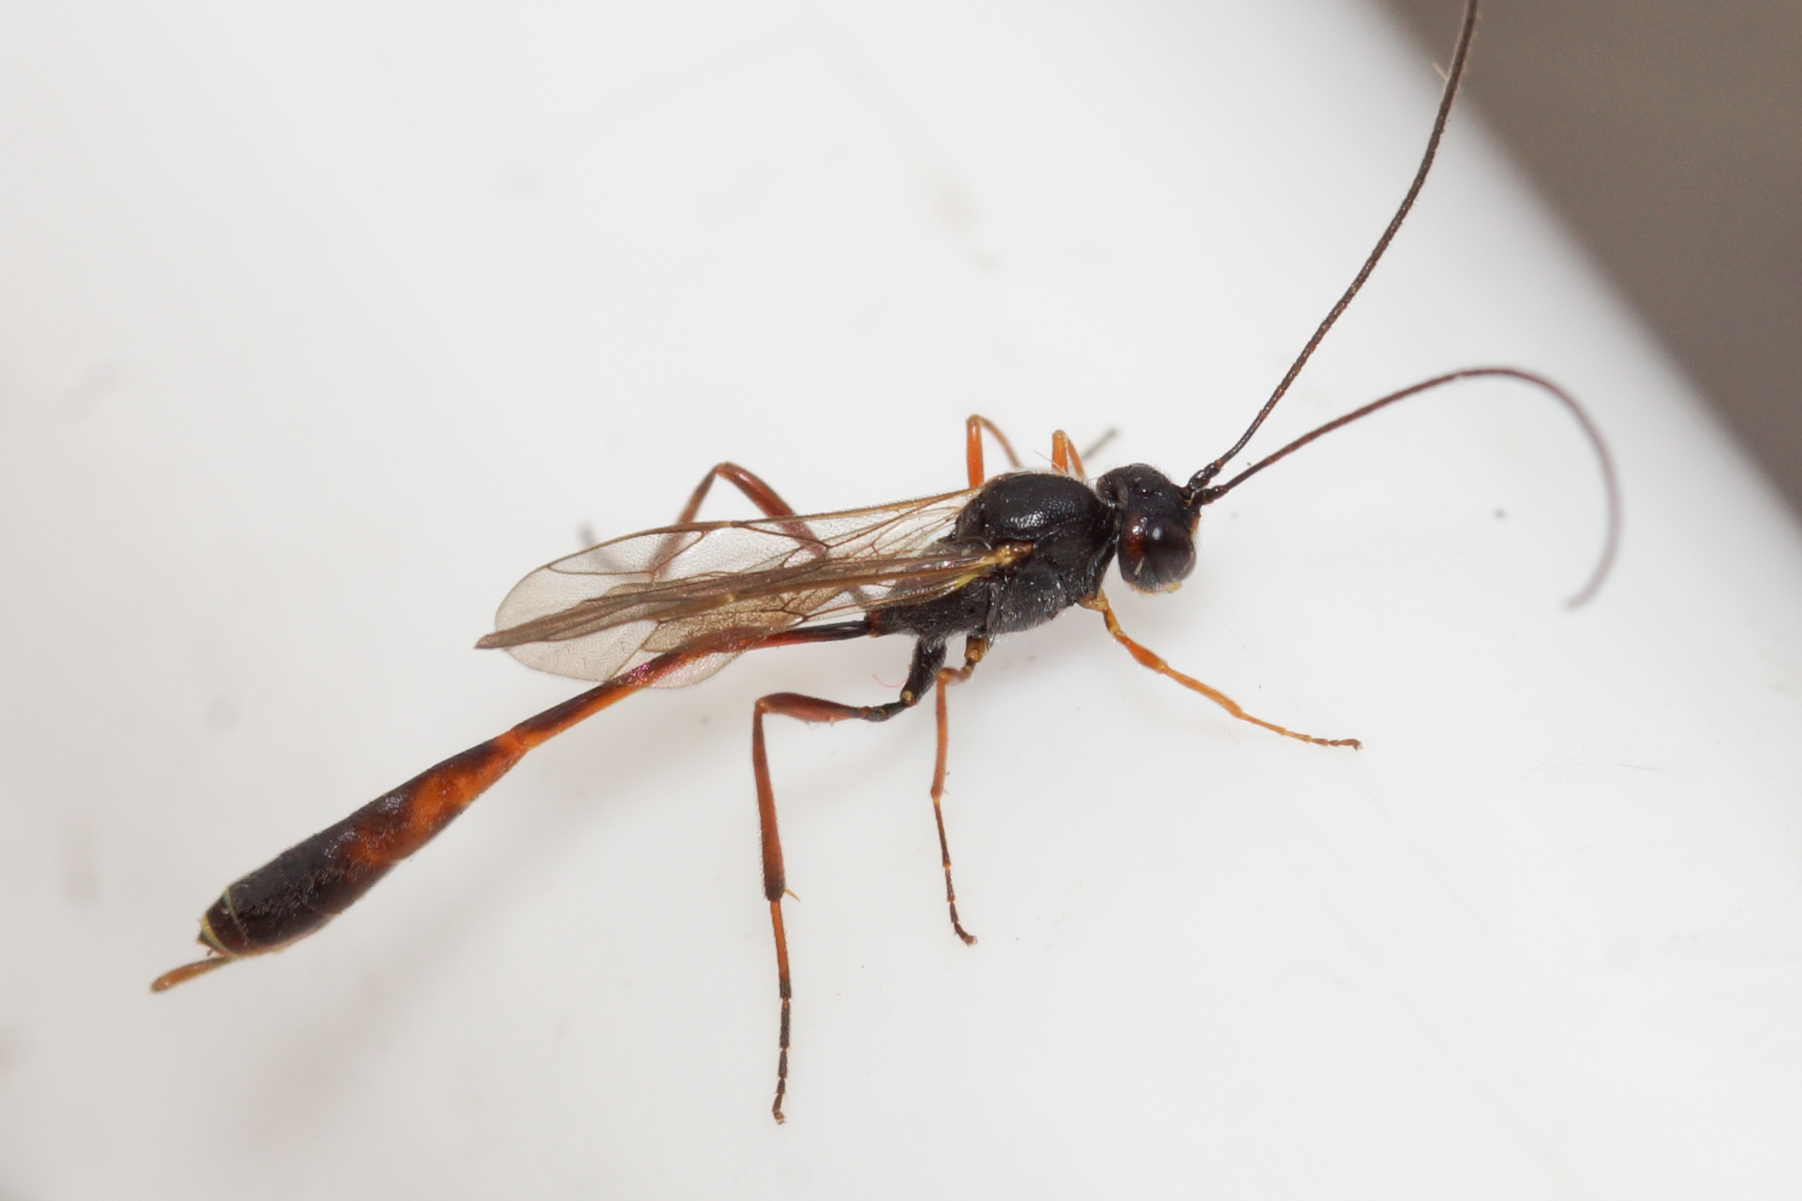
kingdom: Animalia
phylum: Arthropoda
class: Insecta
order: Hymenoptera
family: Ichneumonidae
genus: Agrypon
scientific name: Agrypon
